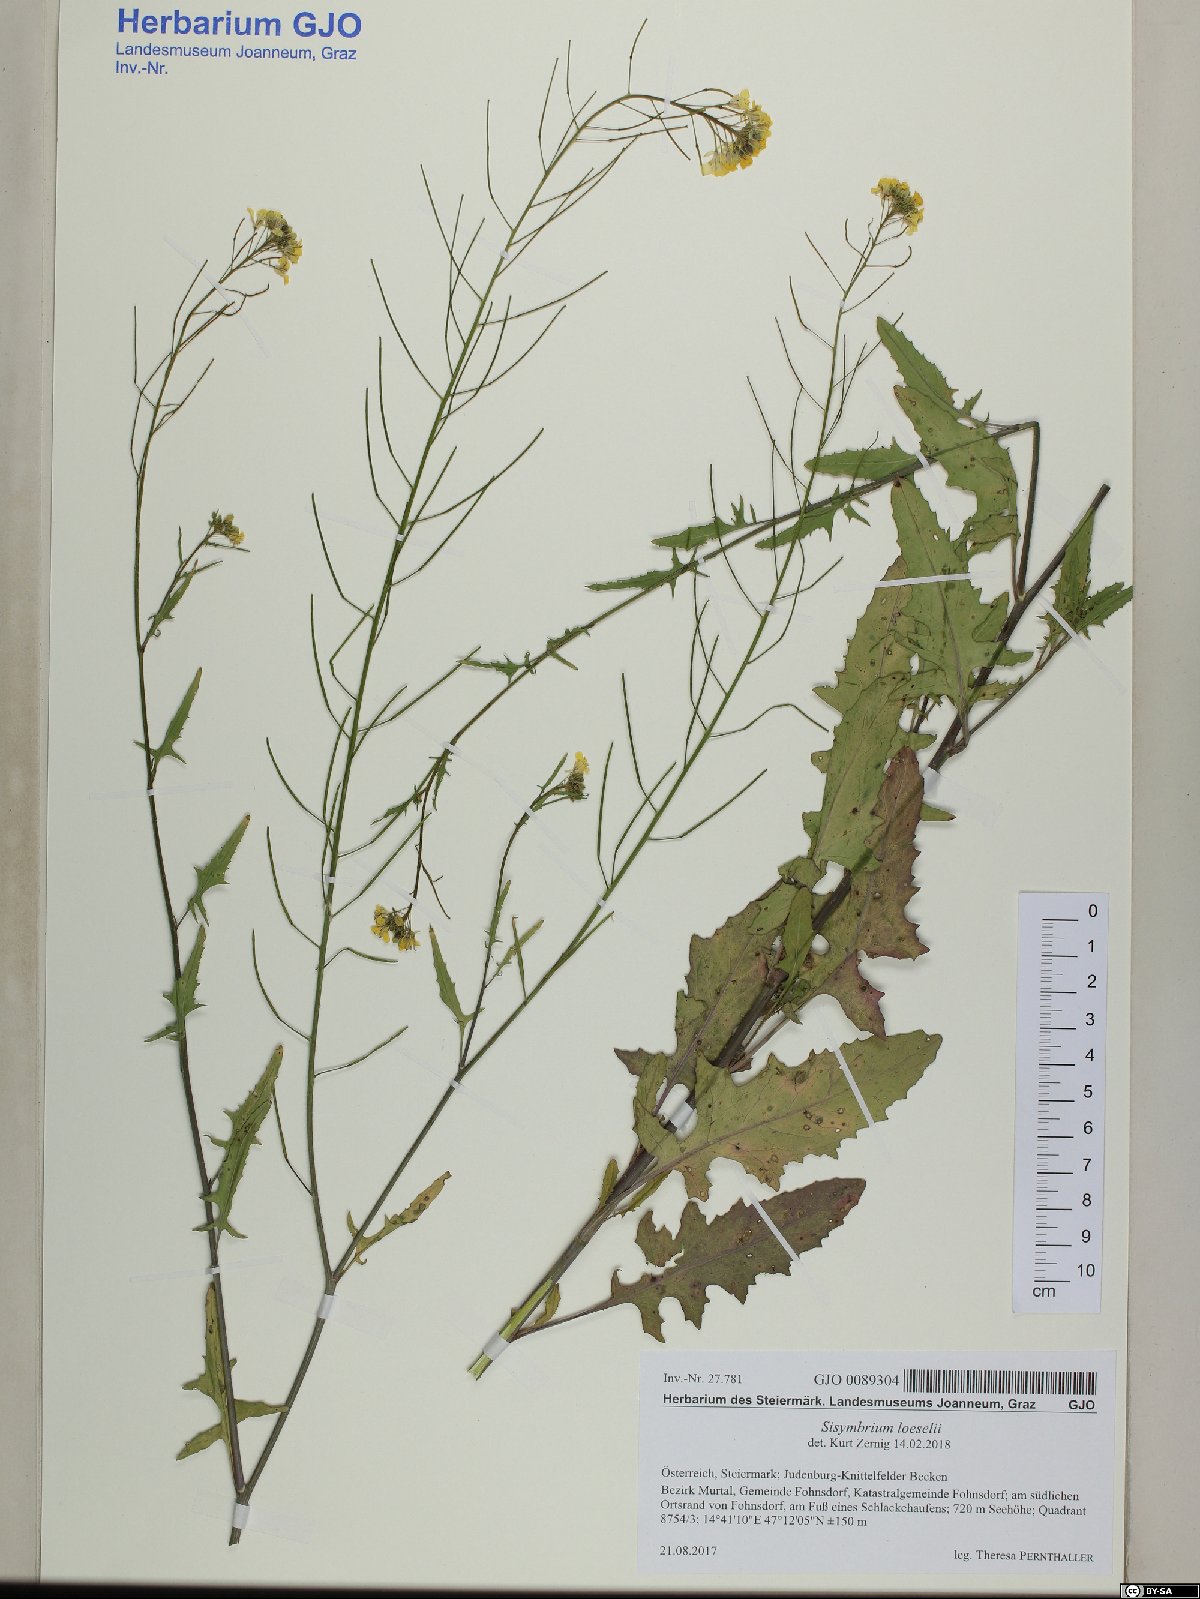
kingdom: Plantae
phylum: Tracheophyta
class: Magnoliopsida
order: Brassicales
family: Brassicaceae
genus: Sisymbrium
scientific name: Sisymbrium loeselii
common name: False london-rocket
